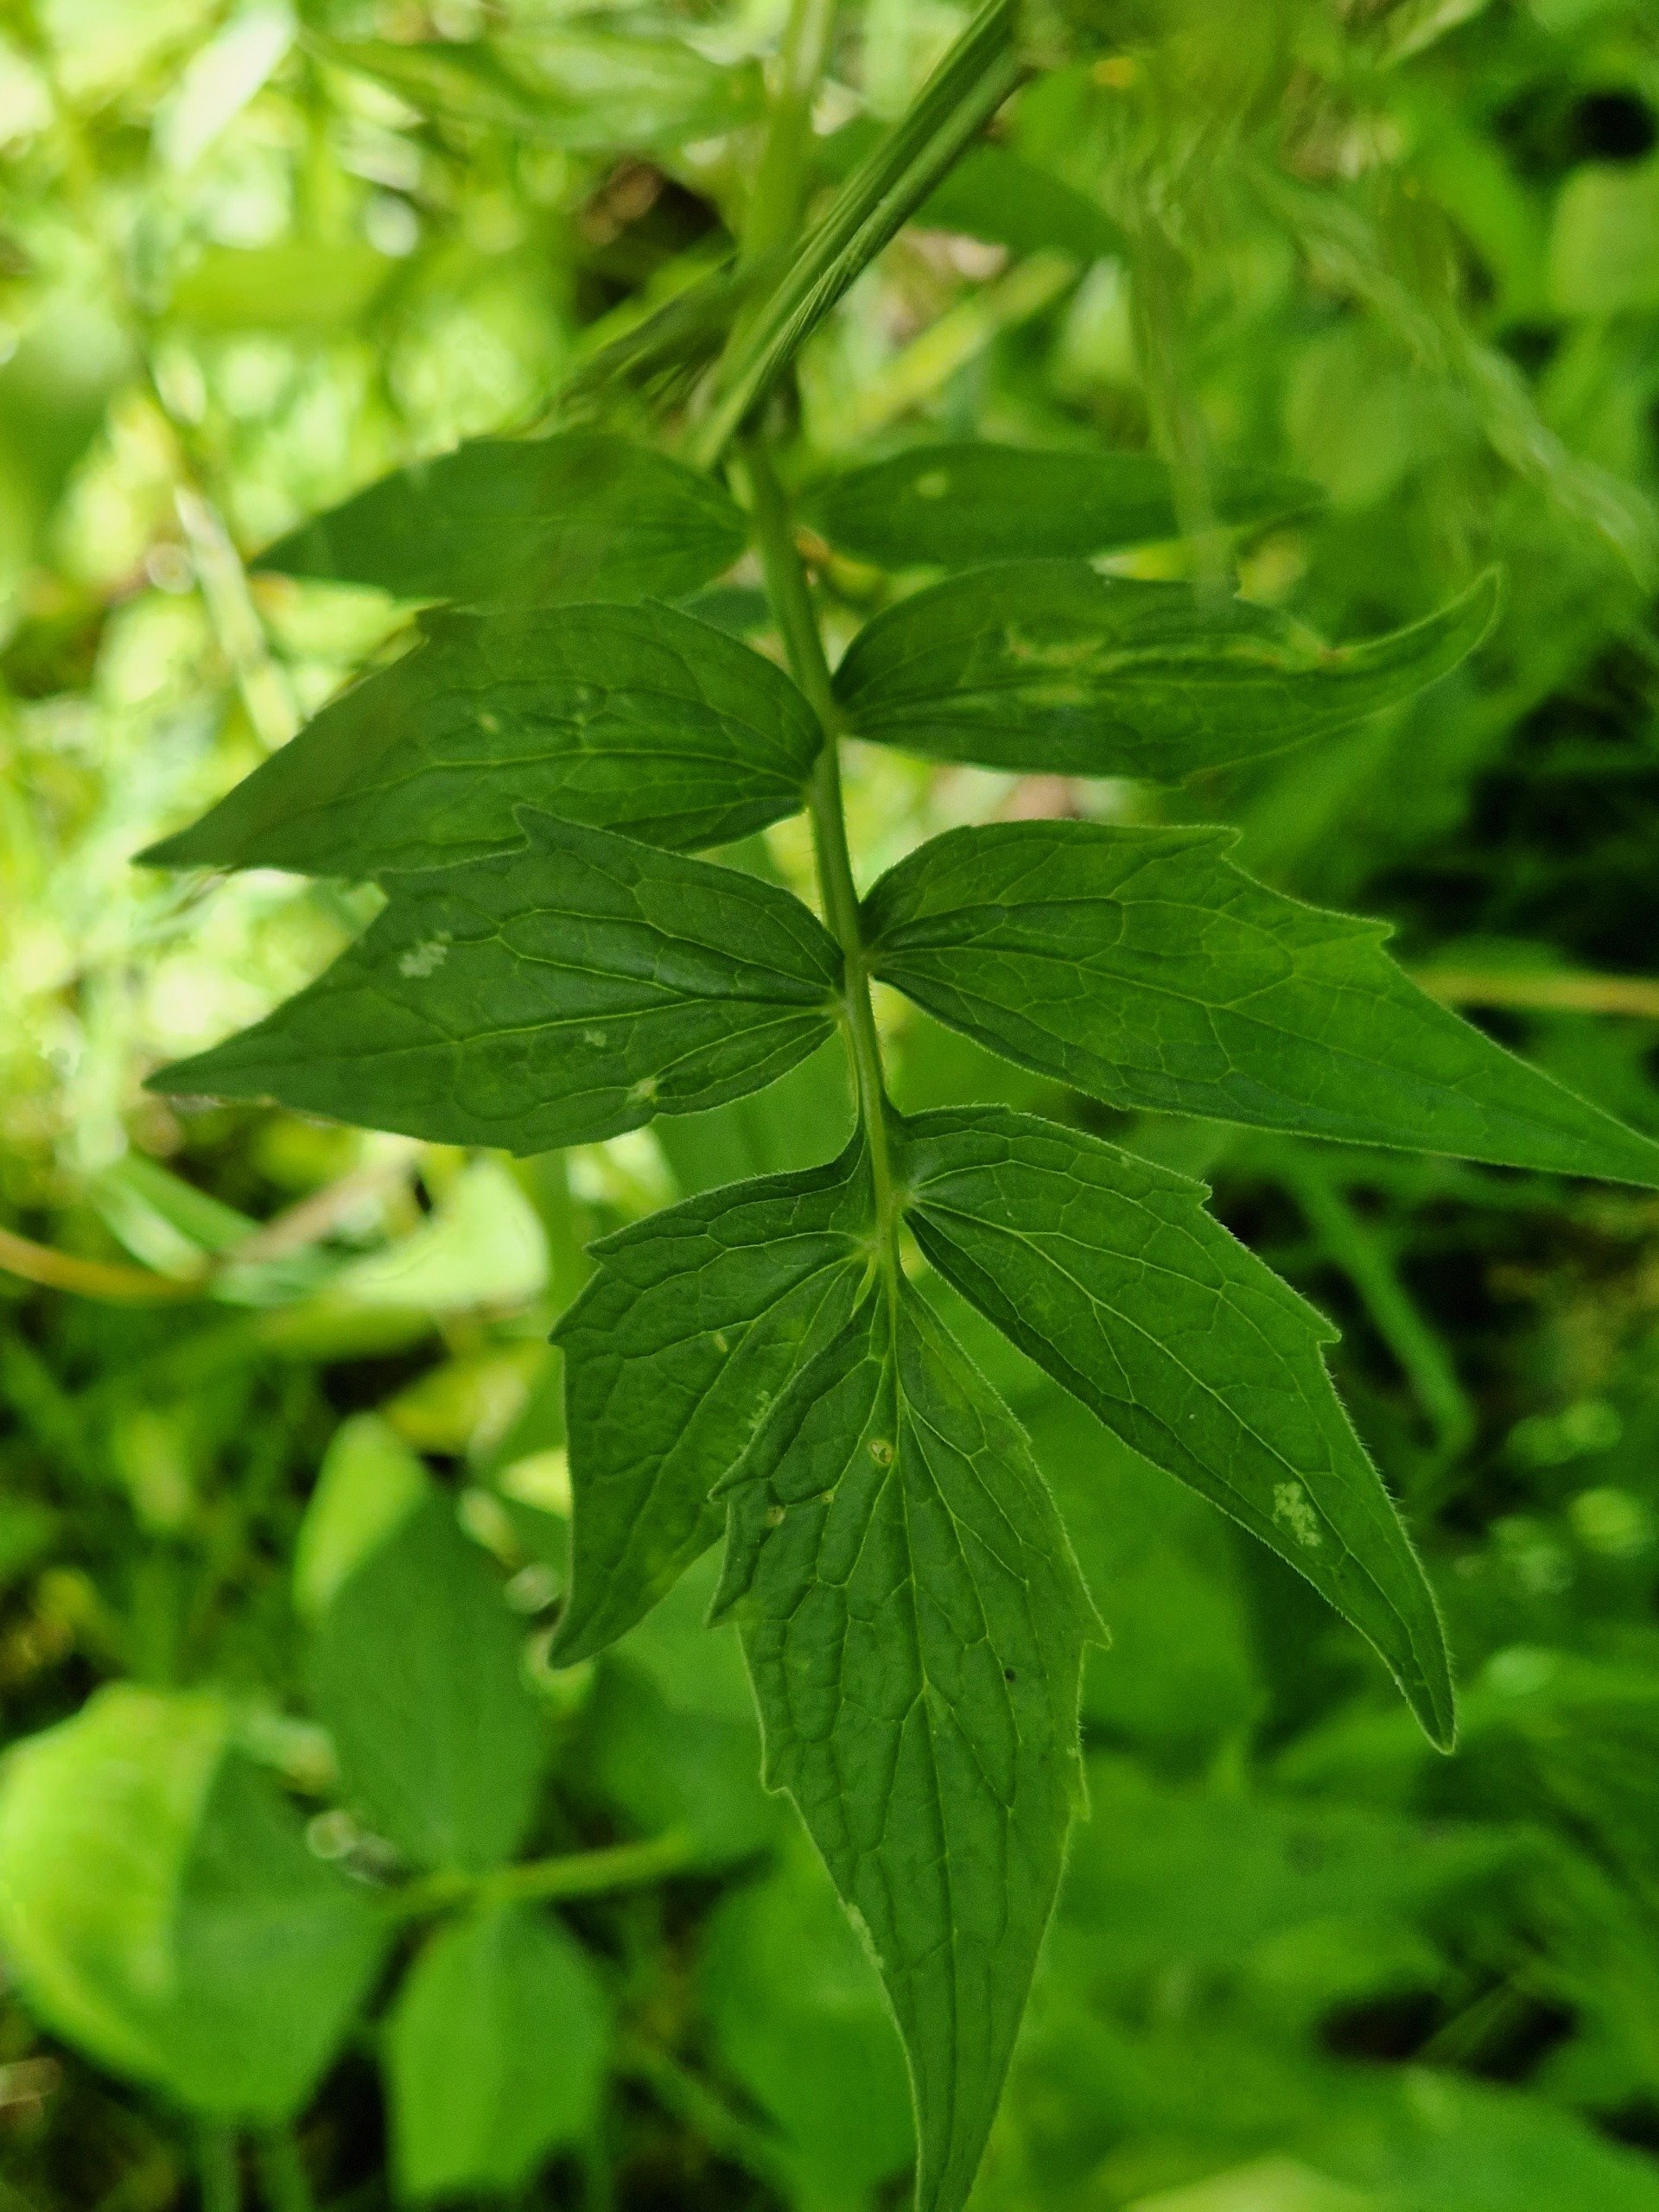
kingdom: Plantae
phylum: Tracheophyta
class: Magnoliopsida
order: Dipsacales
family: Caprifoliaceae
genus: Valeriana
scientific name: Valeriana sambucifolia
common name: Hyldebladet baldrian
